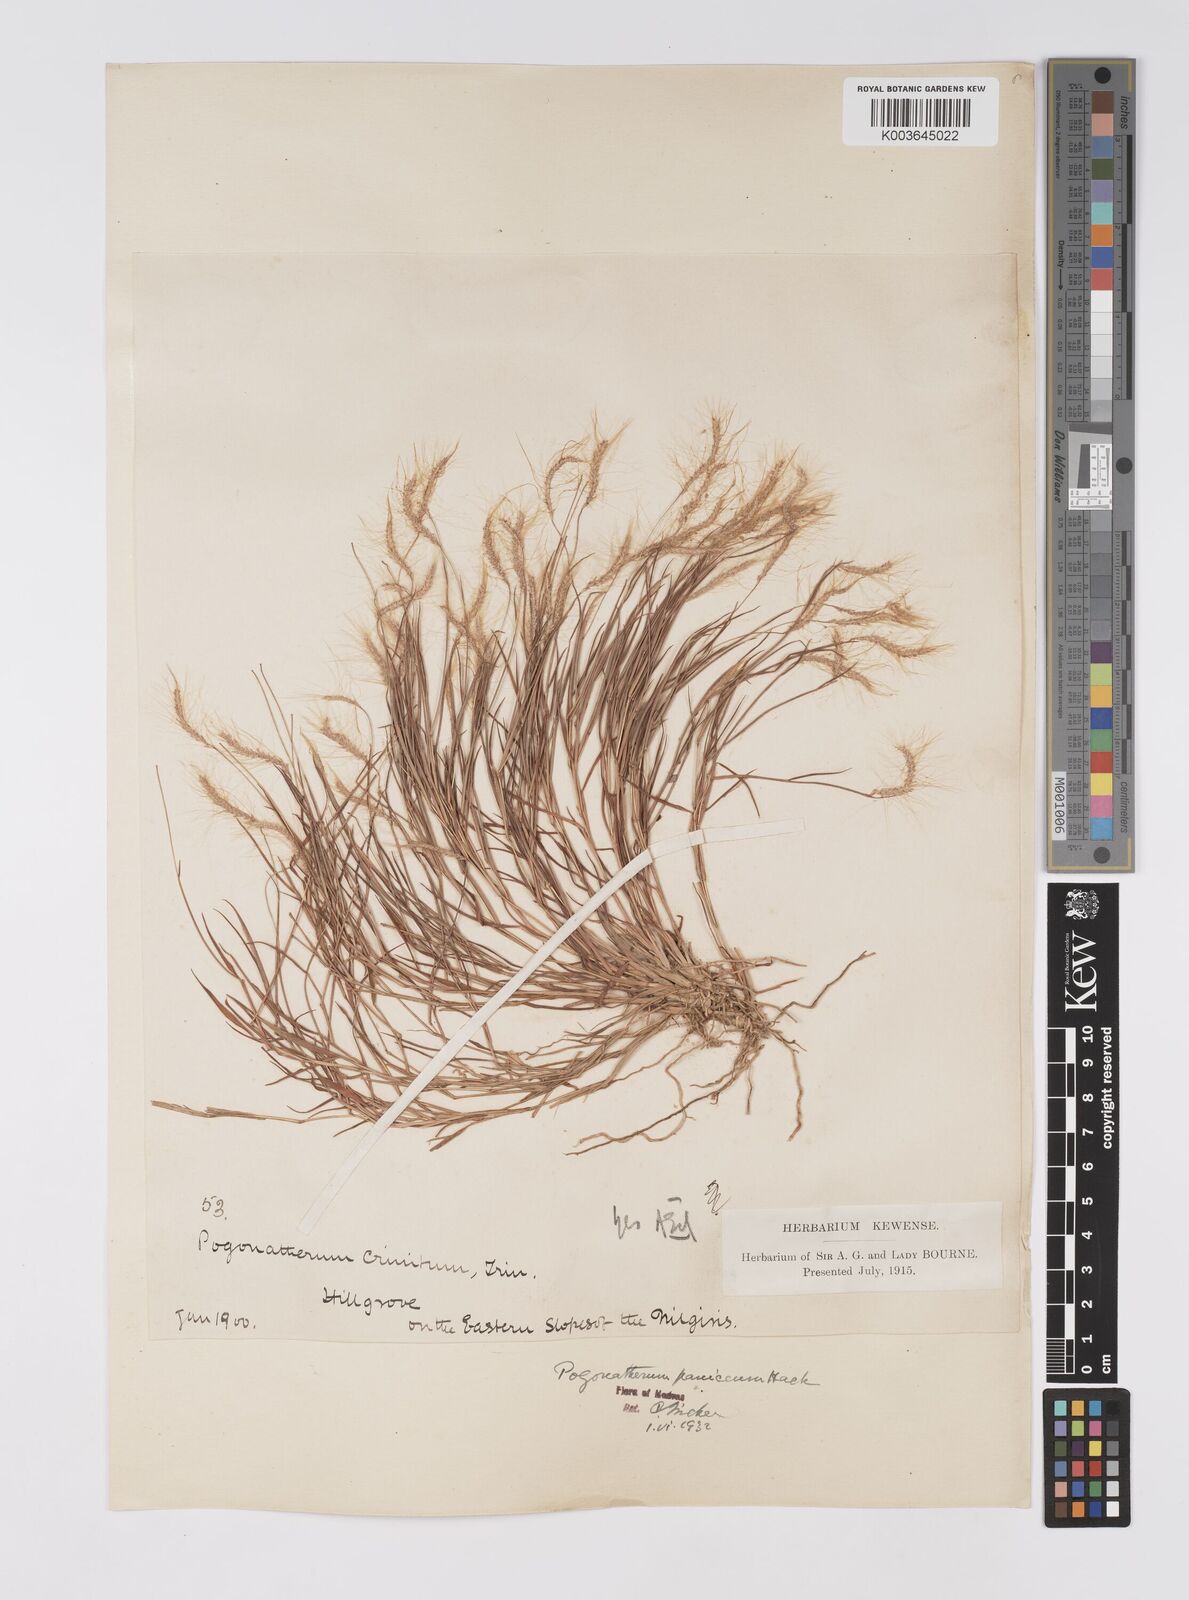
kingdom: Plantae
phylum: Tracheophyta
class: Liliopsida
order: Poales
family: Poaceae
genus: Pogonatherum
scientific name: Pogonatherum crinitum
